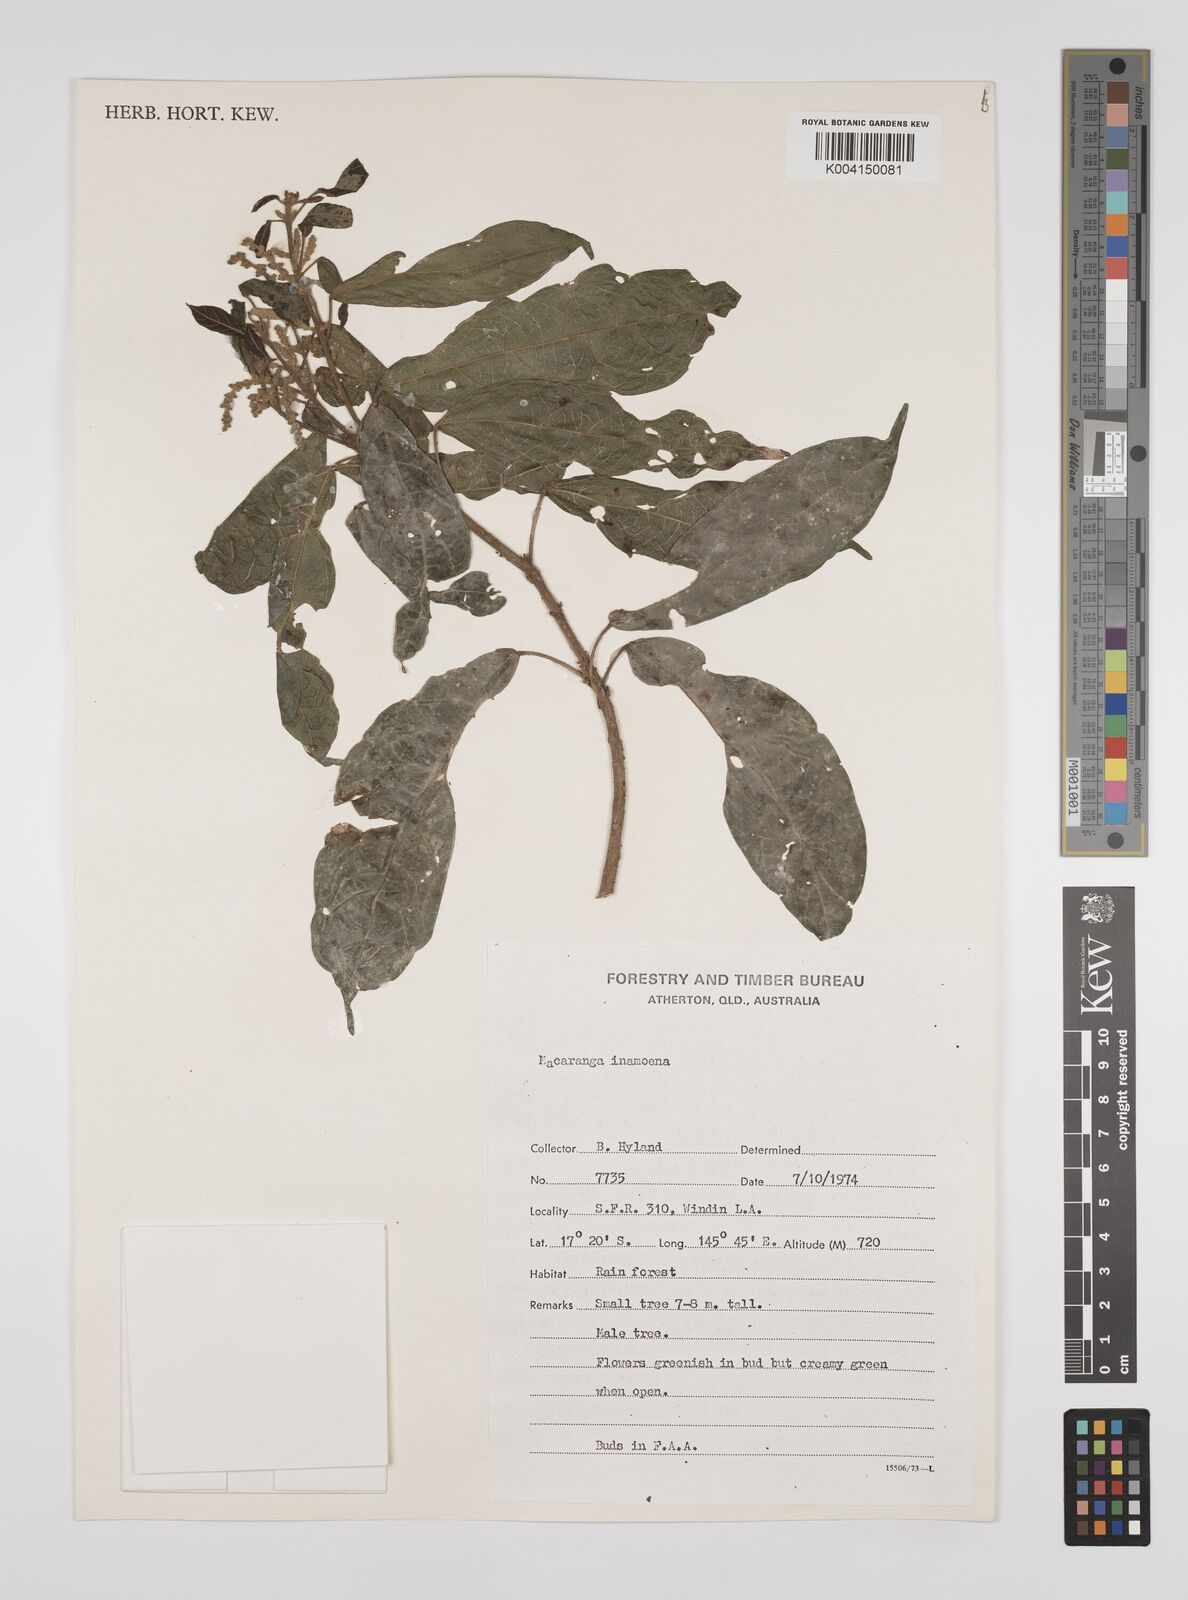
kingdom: Plantae
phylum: Tracheophyta
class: Magnoliopsida
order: Malpighiales
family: Euphorbiaceae
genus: Macaranga
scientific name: Macaranga inamoena
